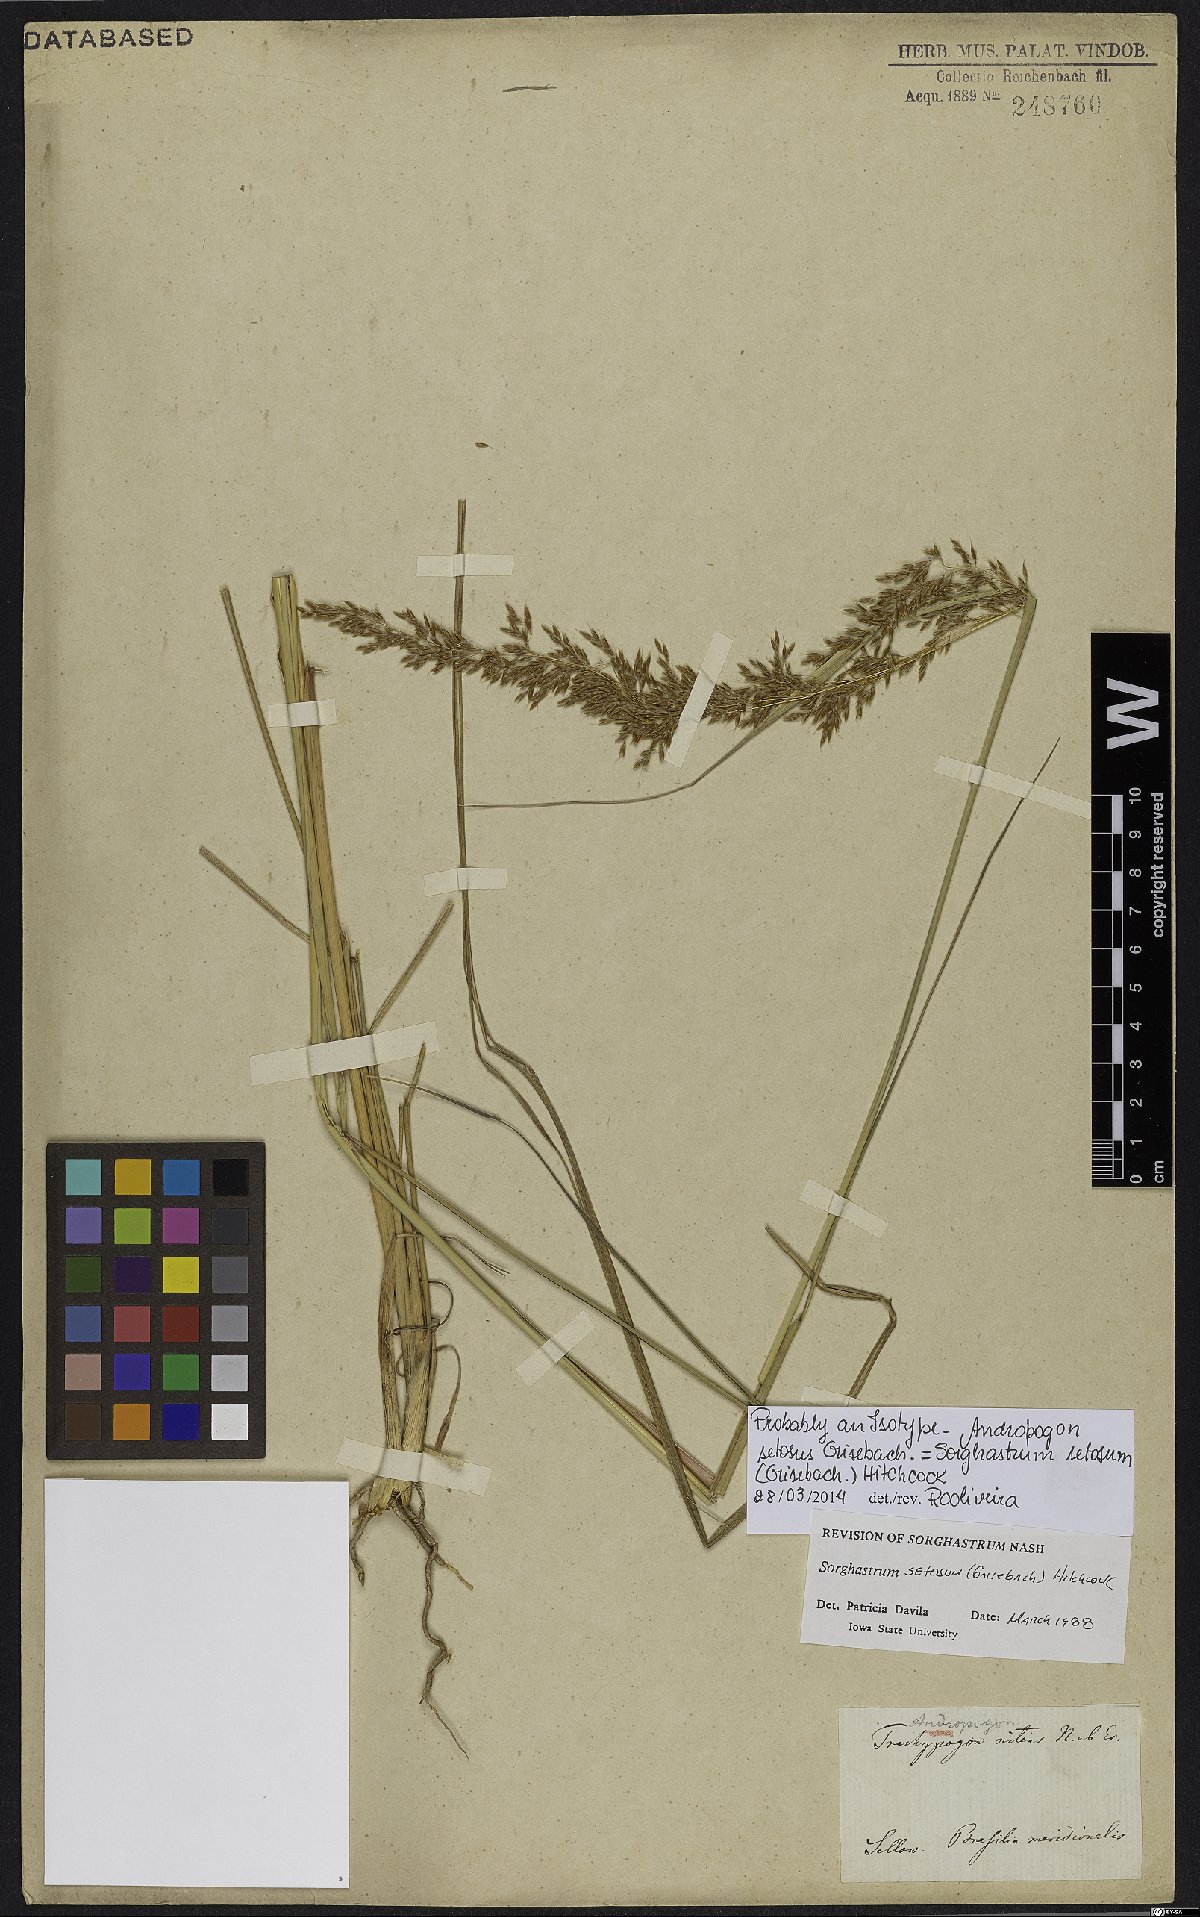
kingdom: Plantae
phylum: Tracheophyta
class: Liliopsida
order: Poales
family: Poaceae
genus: Sorghastrum
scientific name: Sorghastrum setosum
